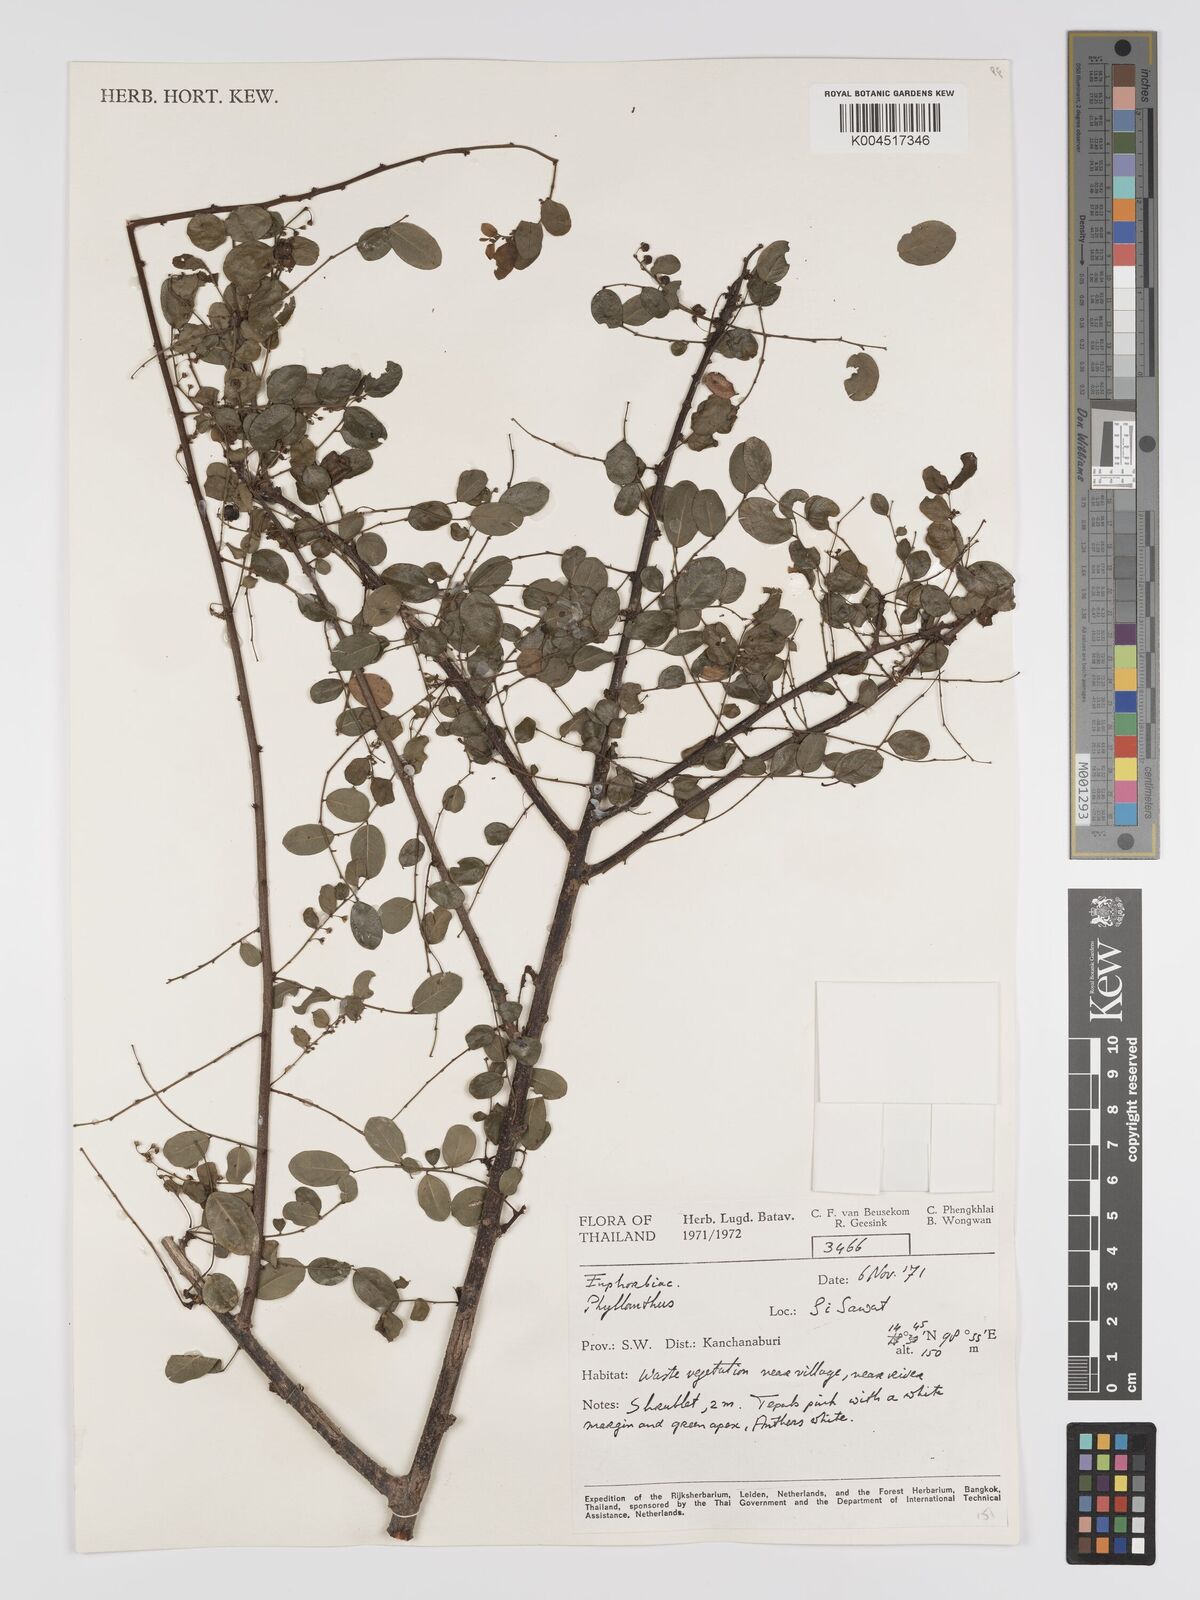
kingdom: Plantae
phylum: Tracheophyta
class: Magnoliopsida
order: Malpighiales
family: Phyllanthaceae
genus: Phyllanthus
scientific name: Phyllanthus reticulatus
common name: Potato bush
